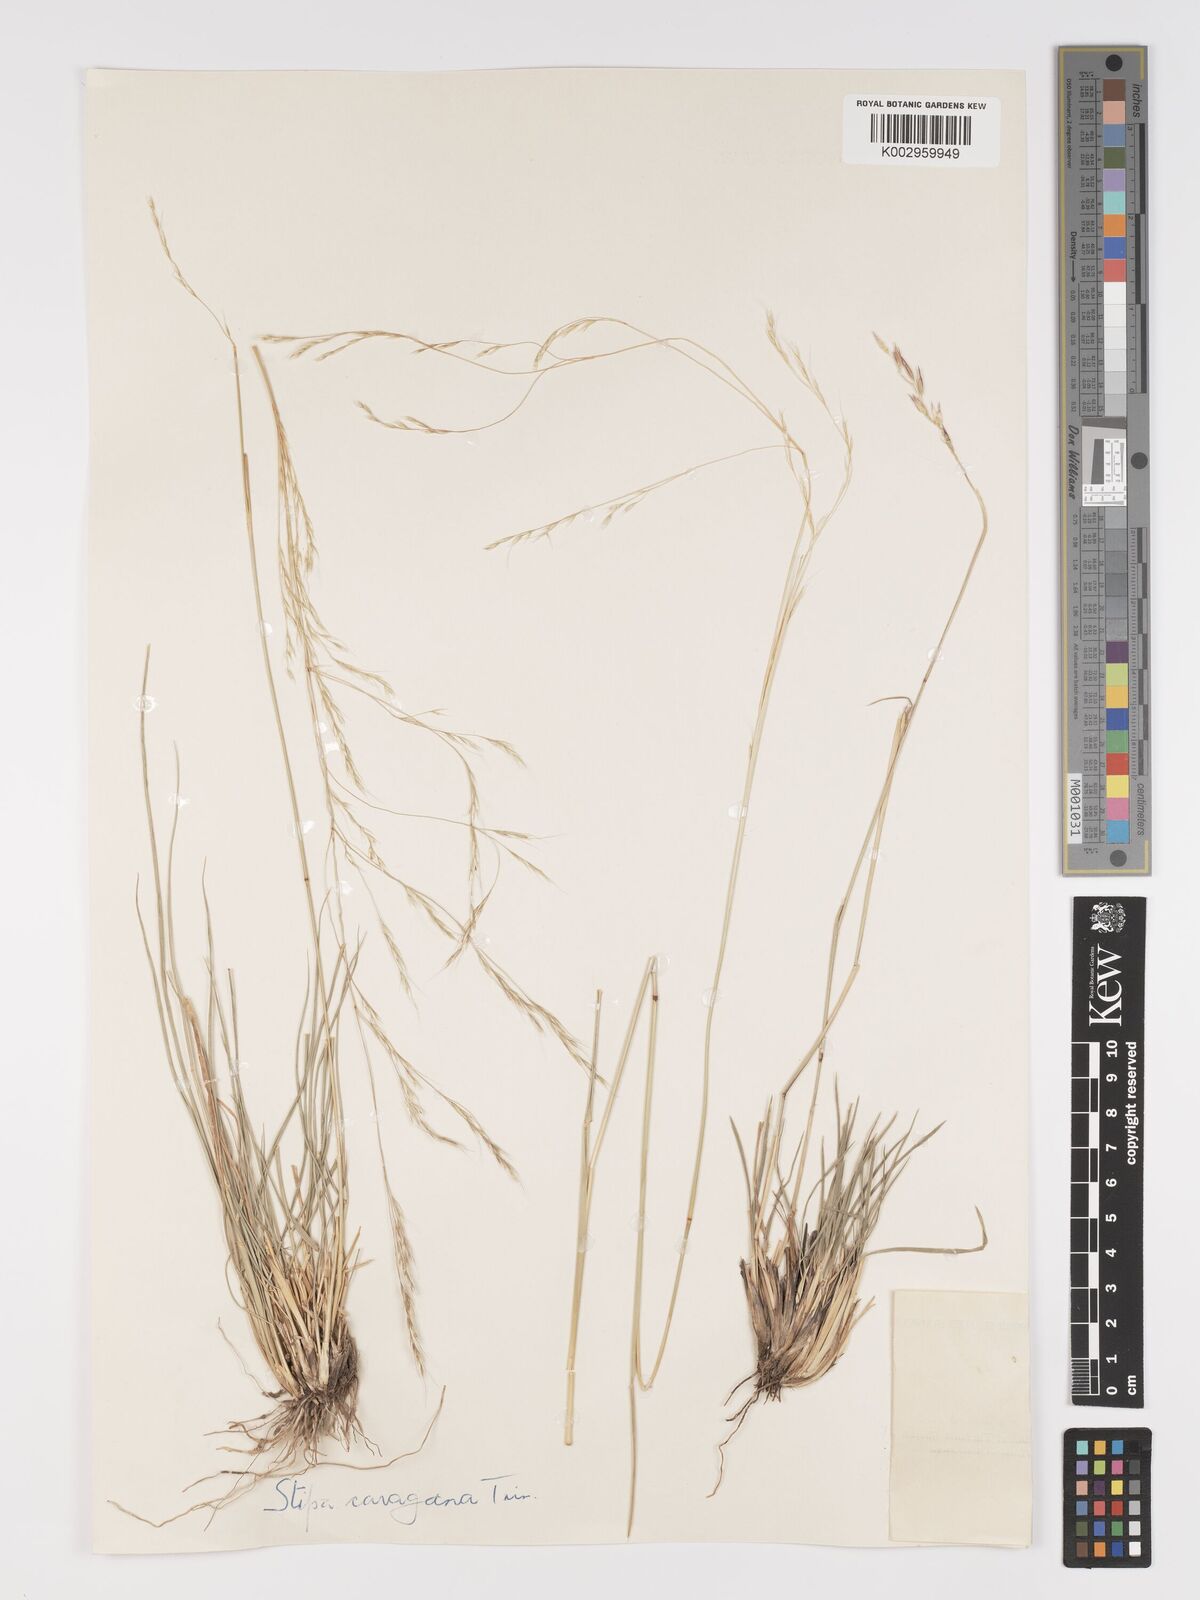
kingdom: Plantae
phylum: Tracheophyta
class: Liliopsida
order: Poales
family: Poaceae
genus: Stipa
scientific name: Stipa conferta
